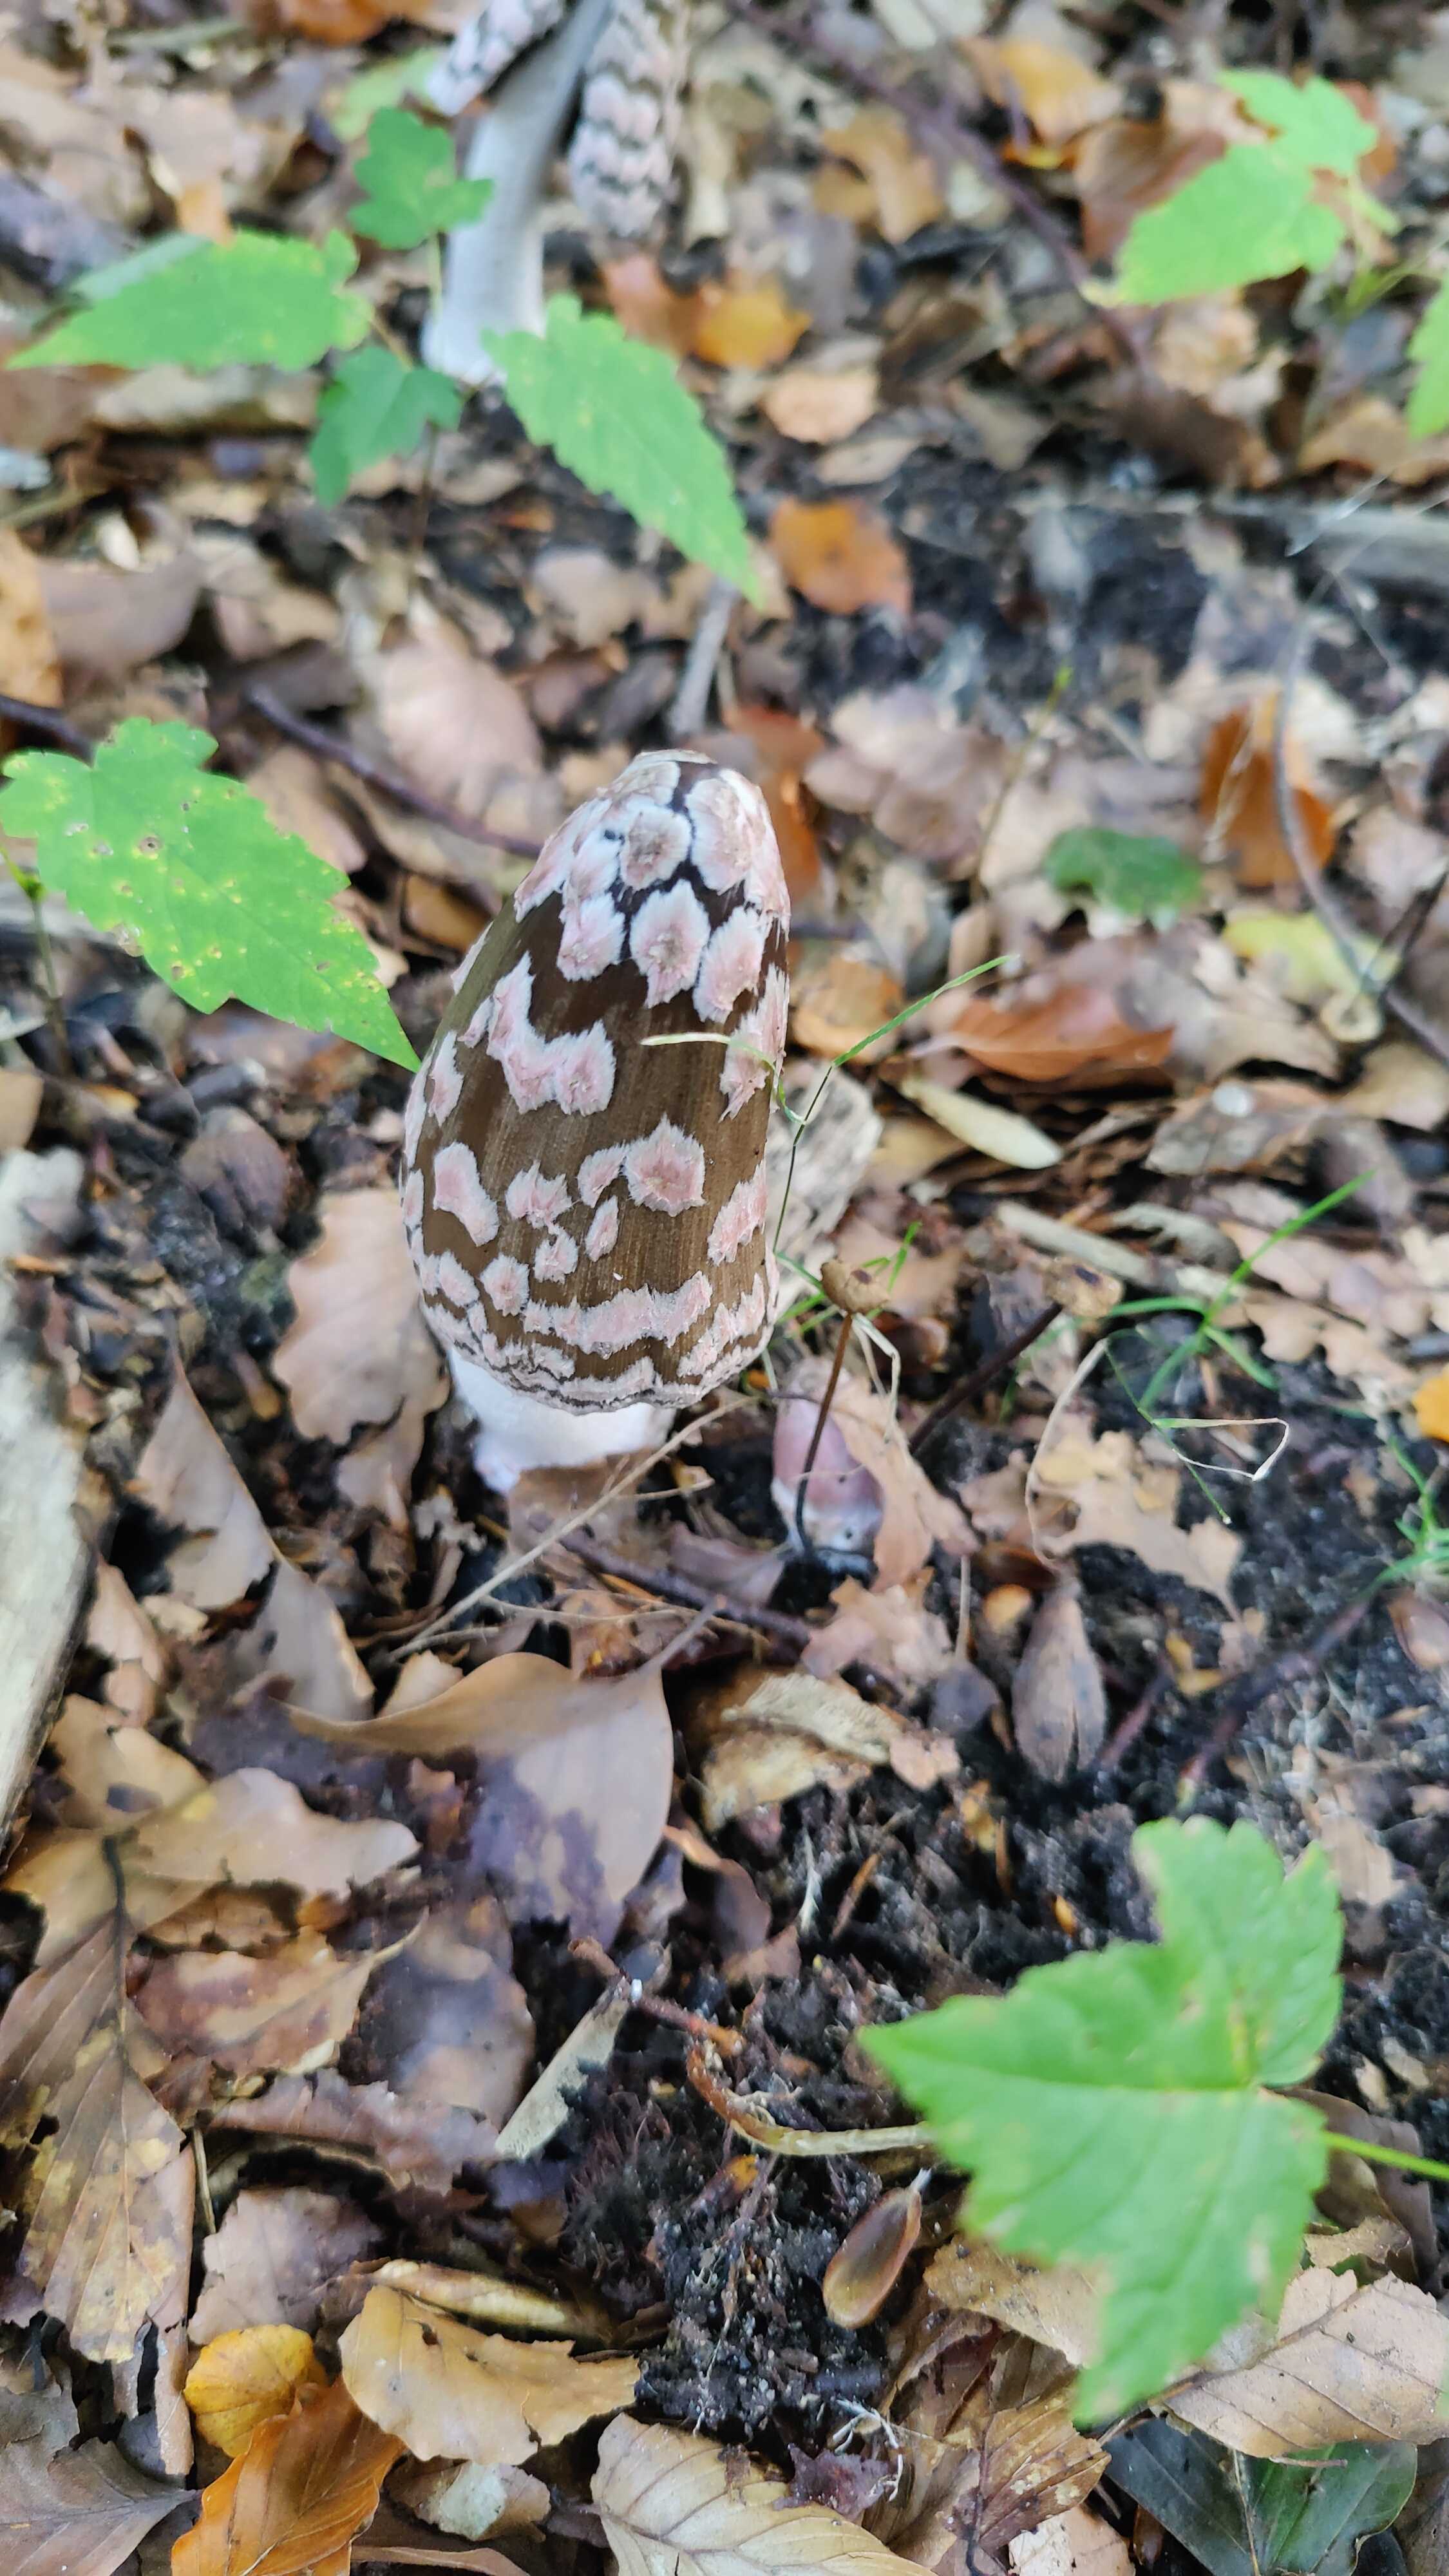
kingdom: Fungi
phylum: Basidiomycota
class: Agaricomycetes
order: Agaricales
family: Psathyrellaceae
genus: Coprinopsis
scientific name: Coprinopsis picacea
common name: skade-blækhat
